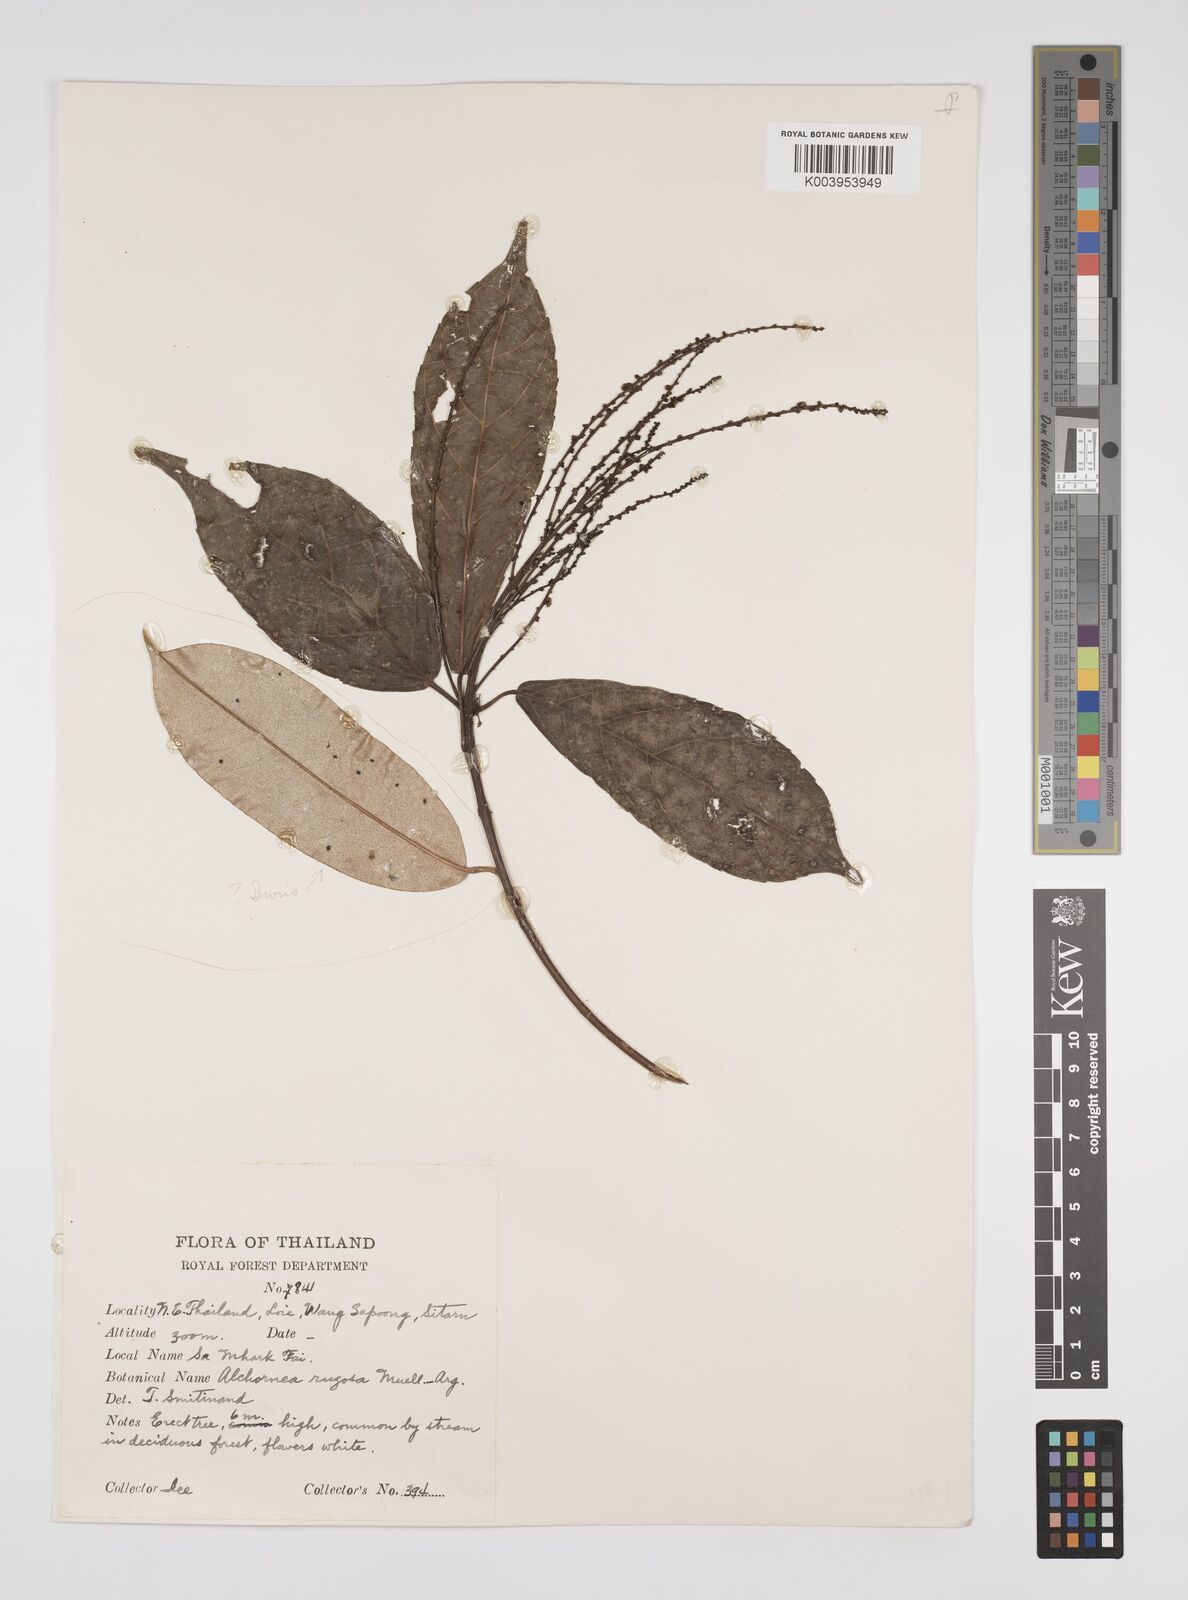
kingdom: Plantae
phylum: Tracheophyta
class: Magnoliopsida
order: Malpighiales
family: Euphorbiaceae
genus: Alchornea
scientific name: Alchornea rugosa
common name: Alchorntree
